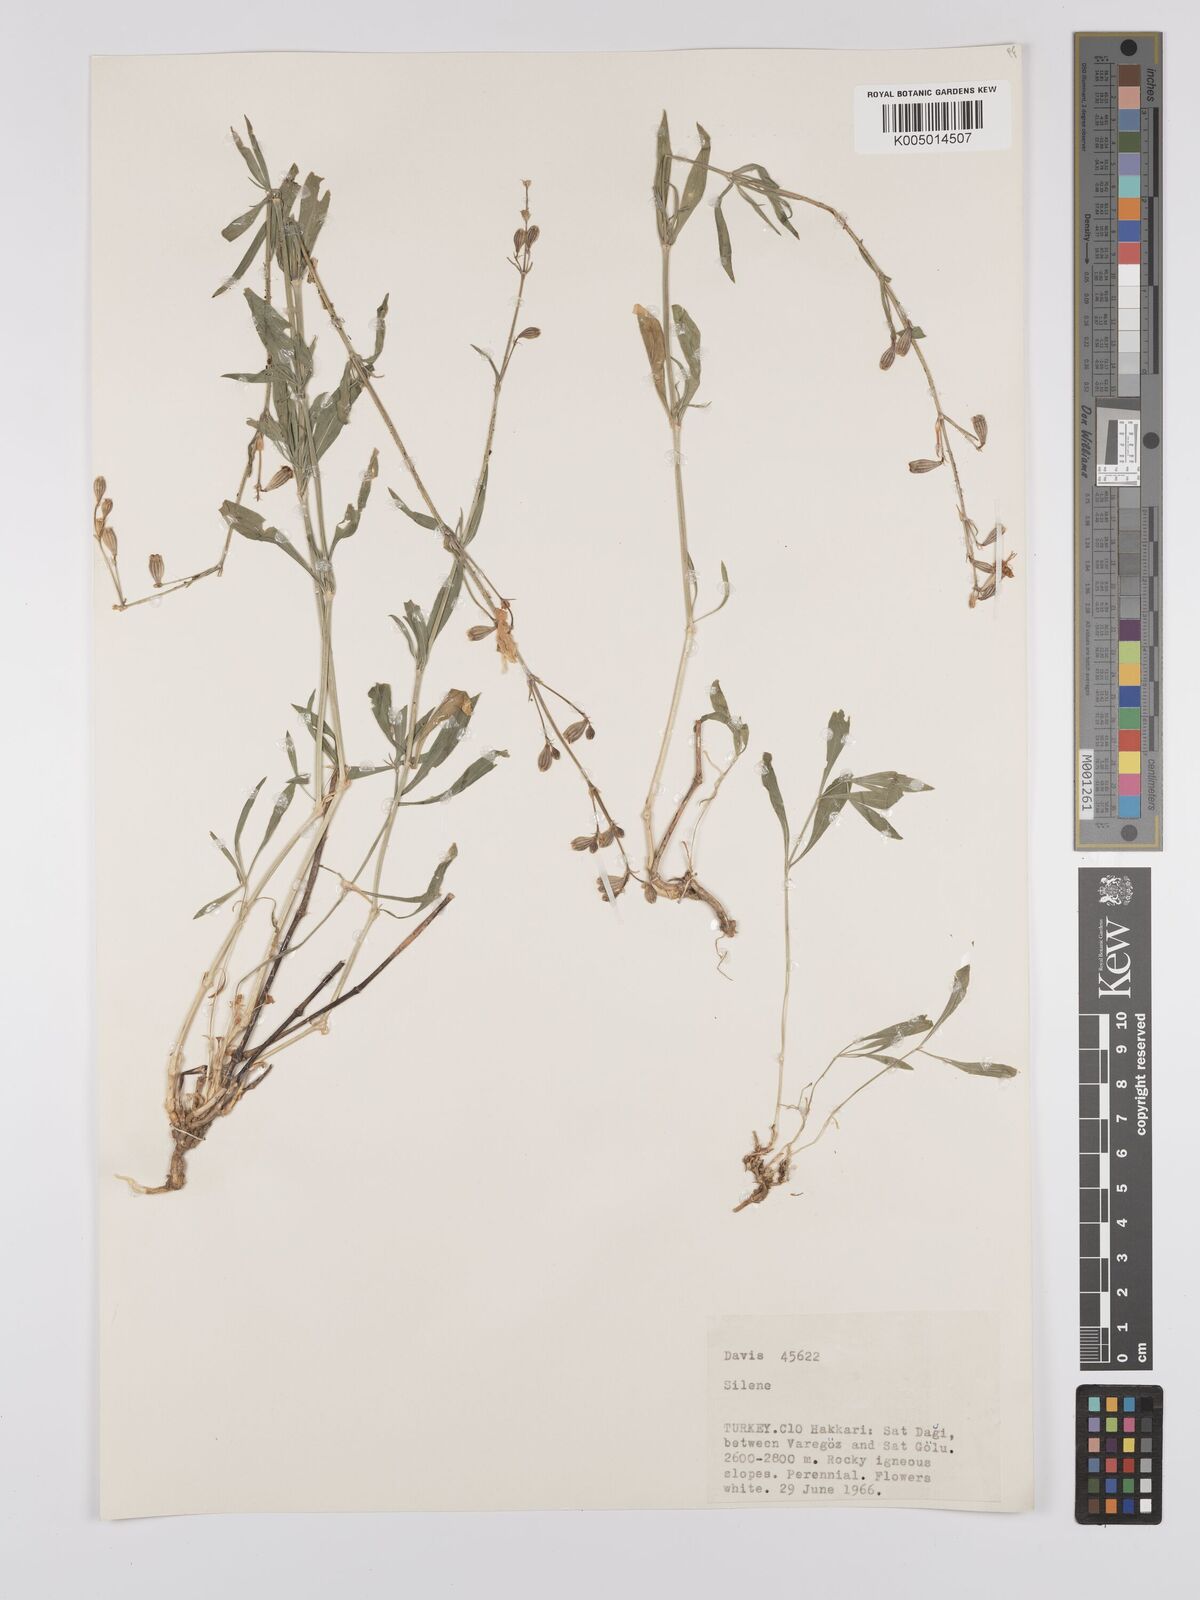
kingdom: Plantae
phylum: Tracheophyta
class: Magnoliopsida
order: Caryophyllales
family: Caryophyllaceae
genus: Silene
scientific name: Silene
